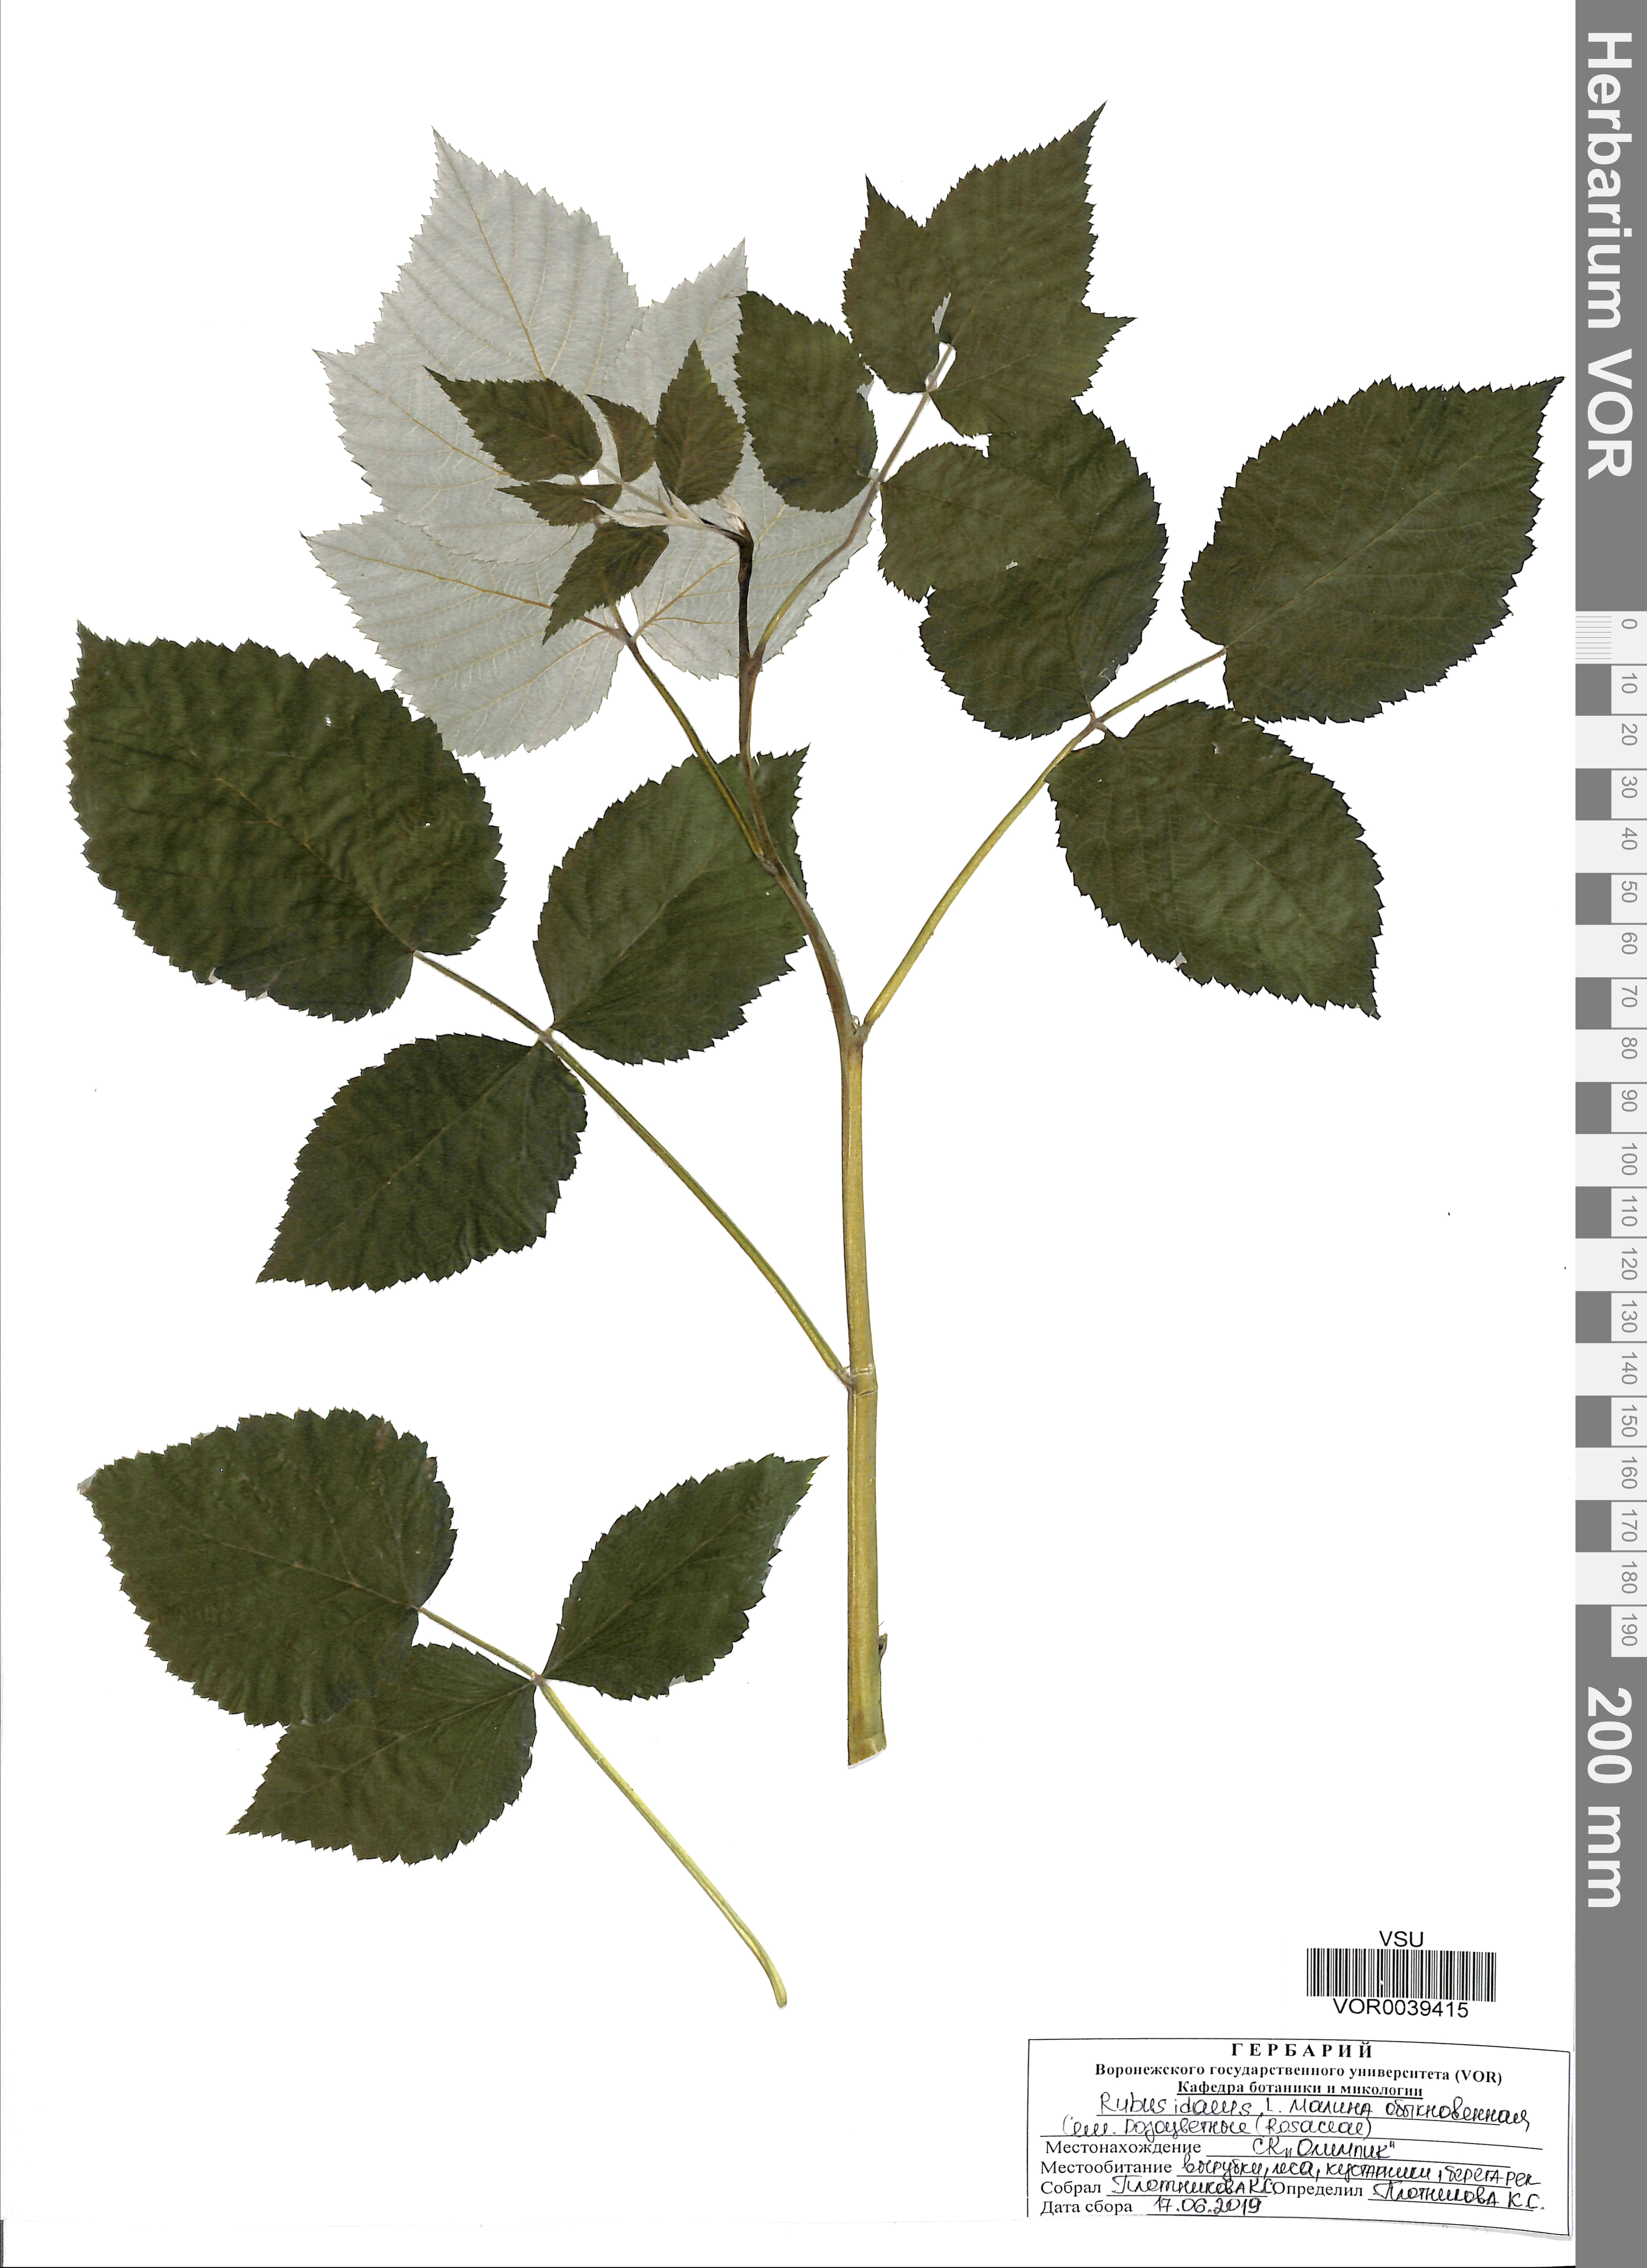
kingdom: Plantae
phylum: Tracheophyta
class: Magnoliopsida
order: Rosales
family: Rosaceae
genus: Rubus
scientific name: Rubus idaeus
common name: Raspberry
